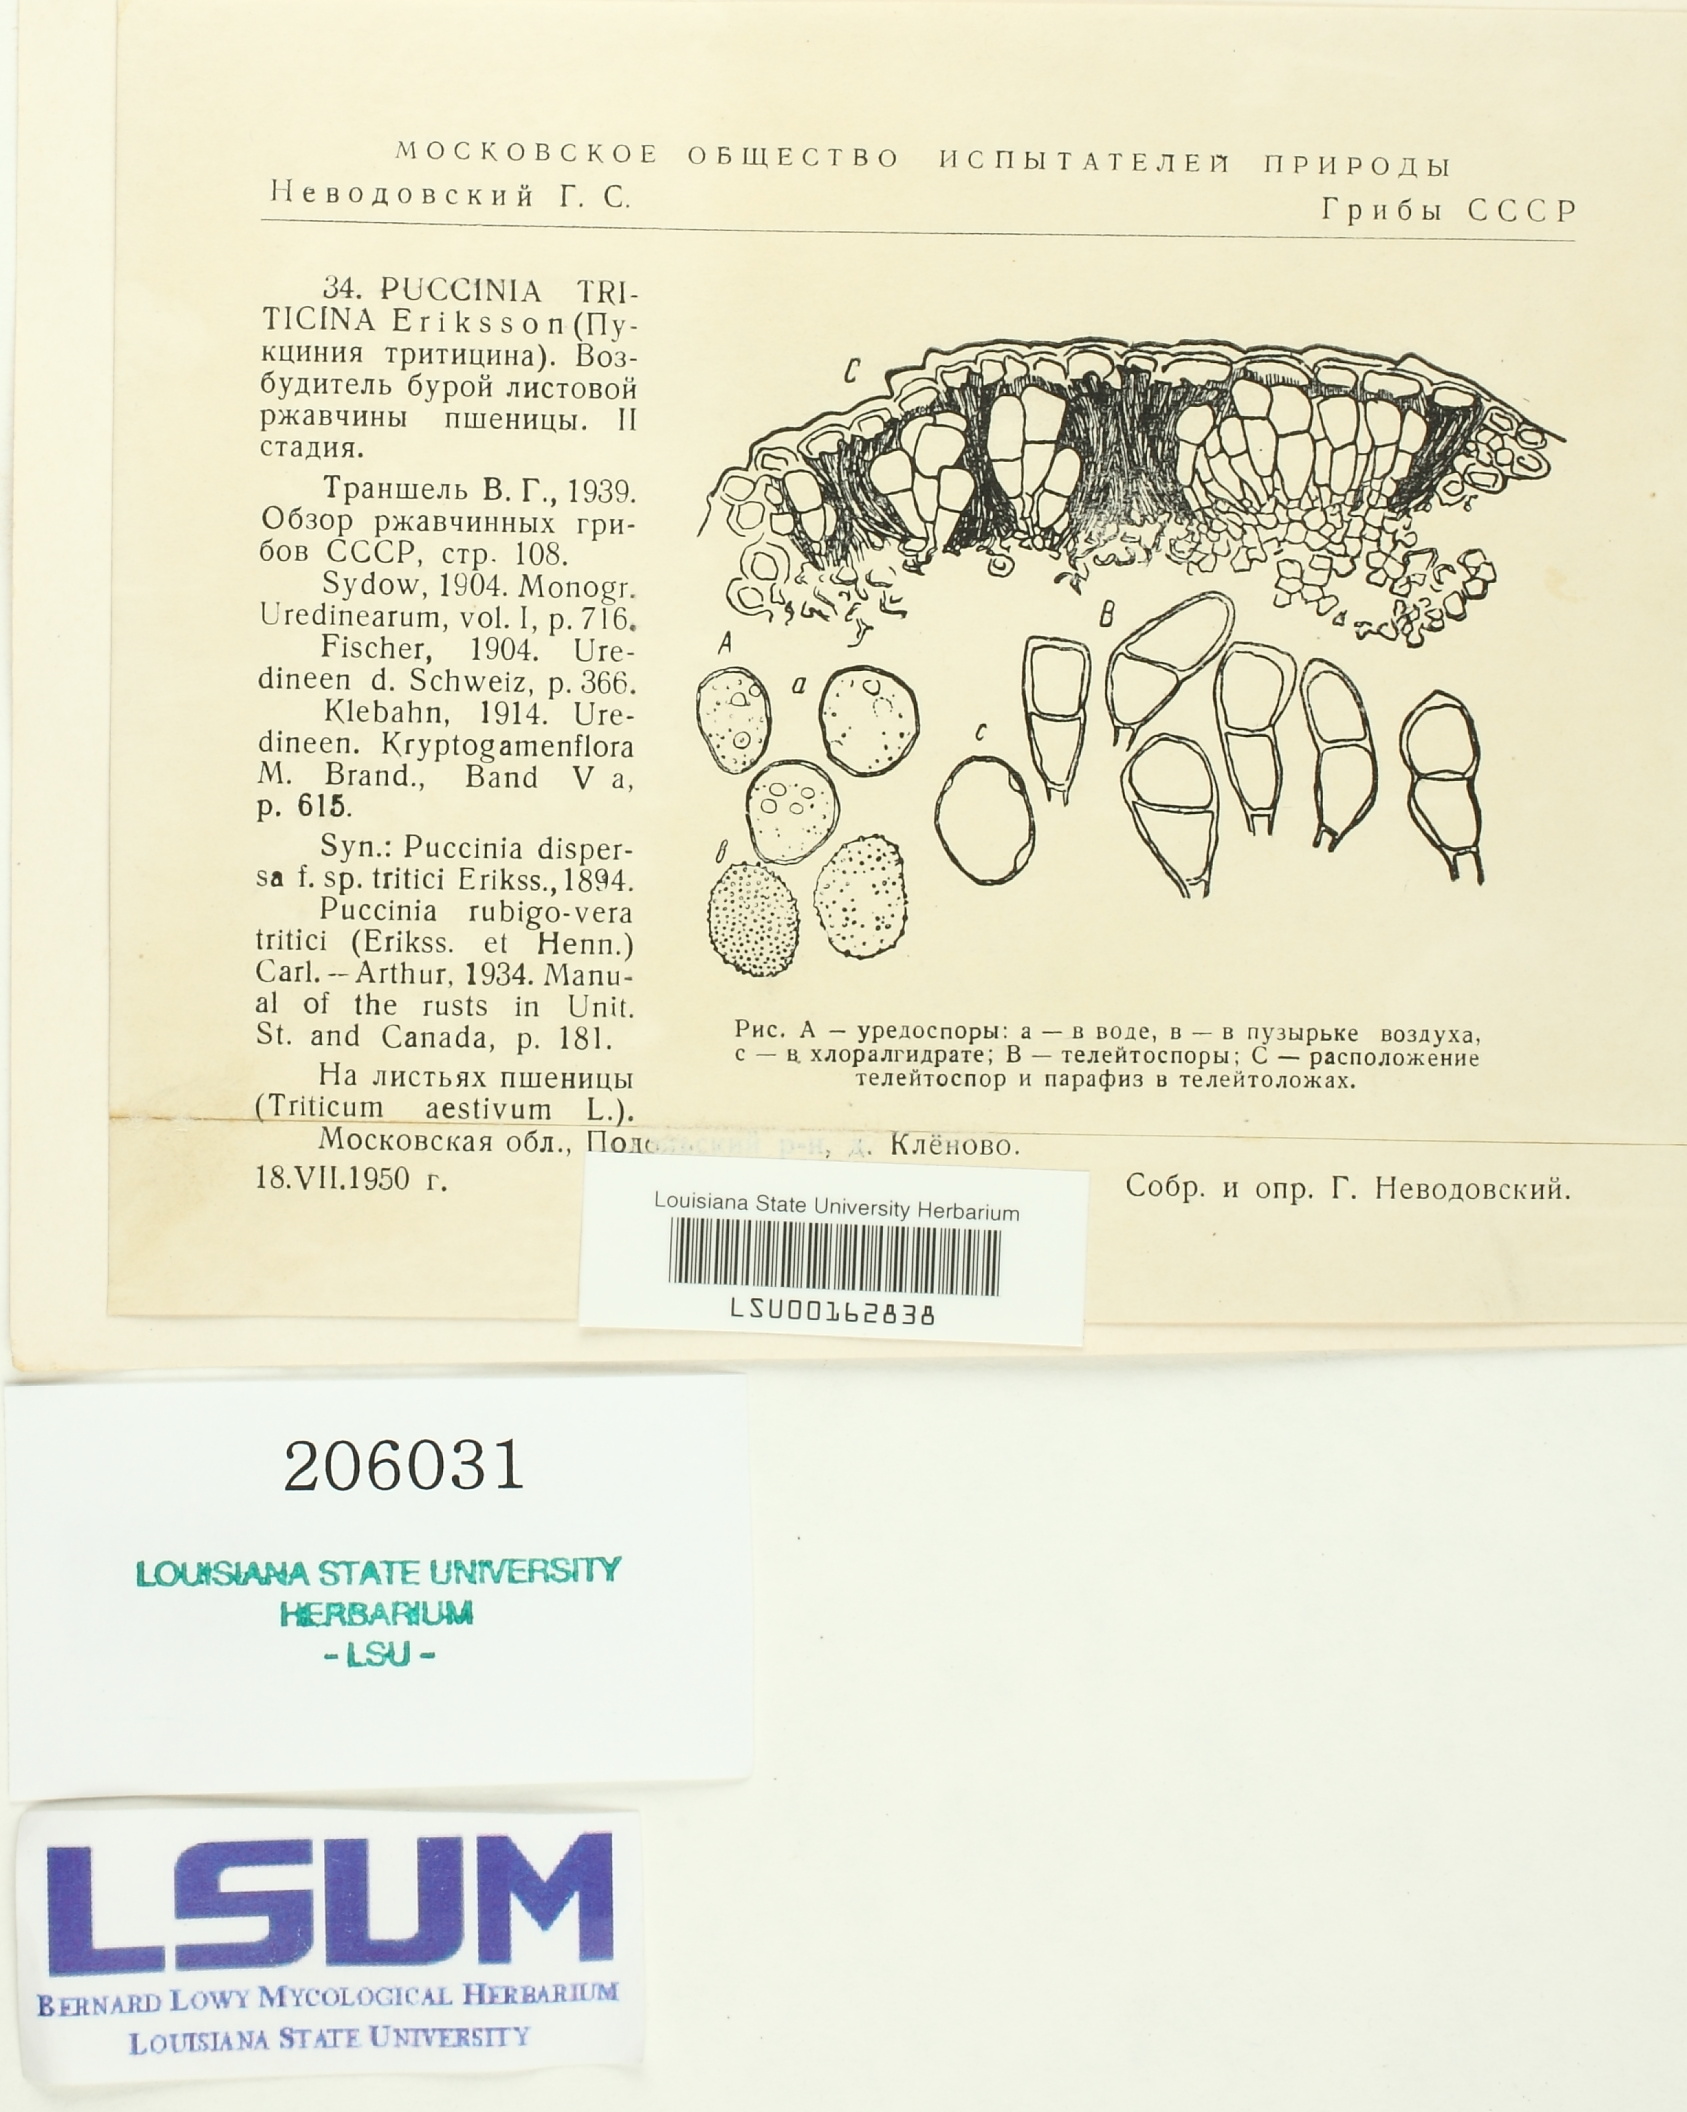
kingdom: Fungi
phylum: Basidiomycota
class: Pucciniomycetes
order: Pucciniales
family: Pucciniaceae
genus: Puccinia
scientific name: Puccinia recondita
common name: Brown rust of wheat
